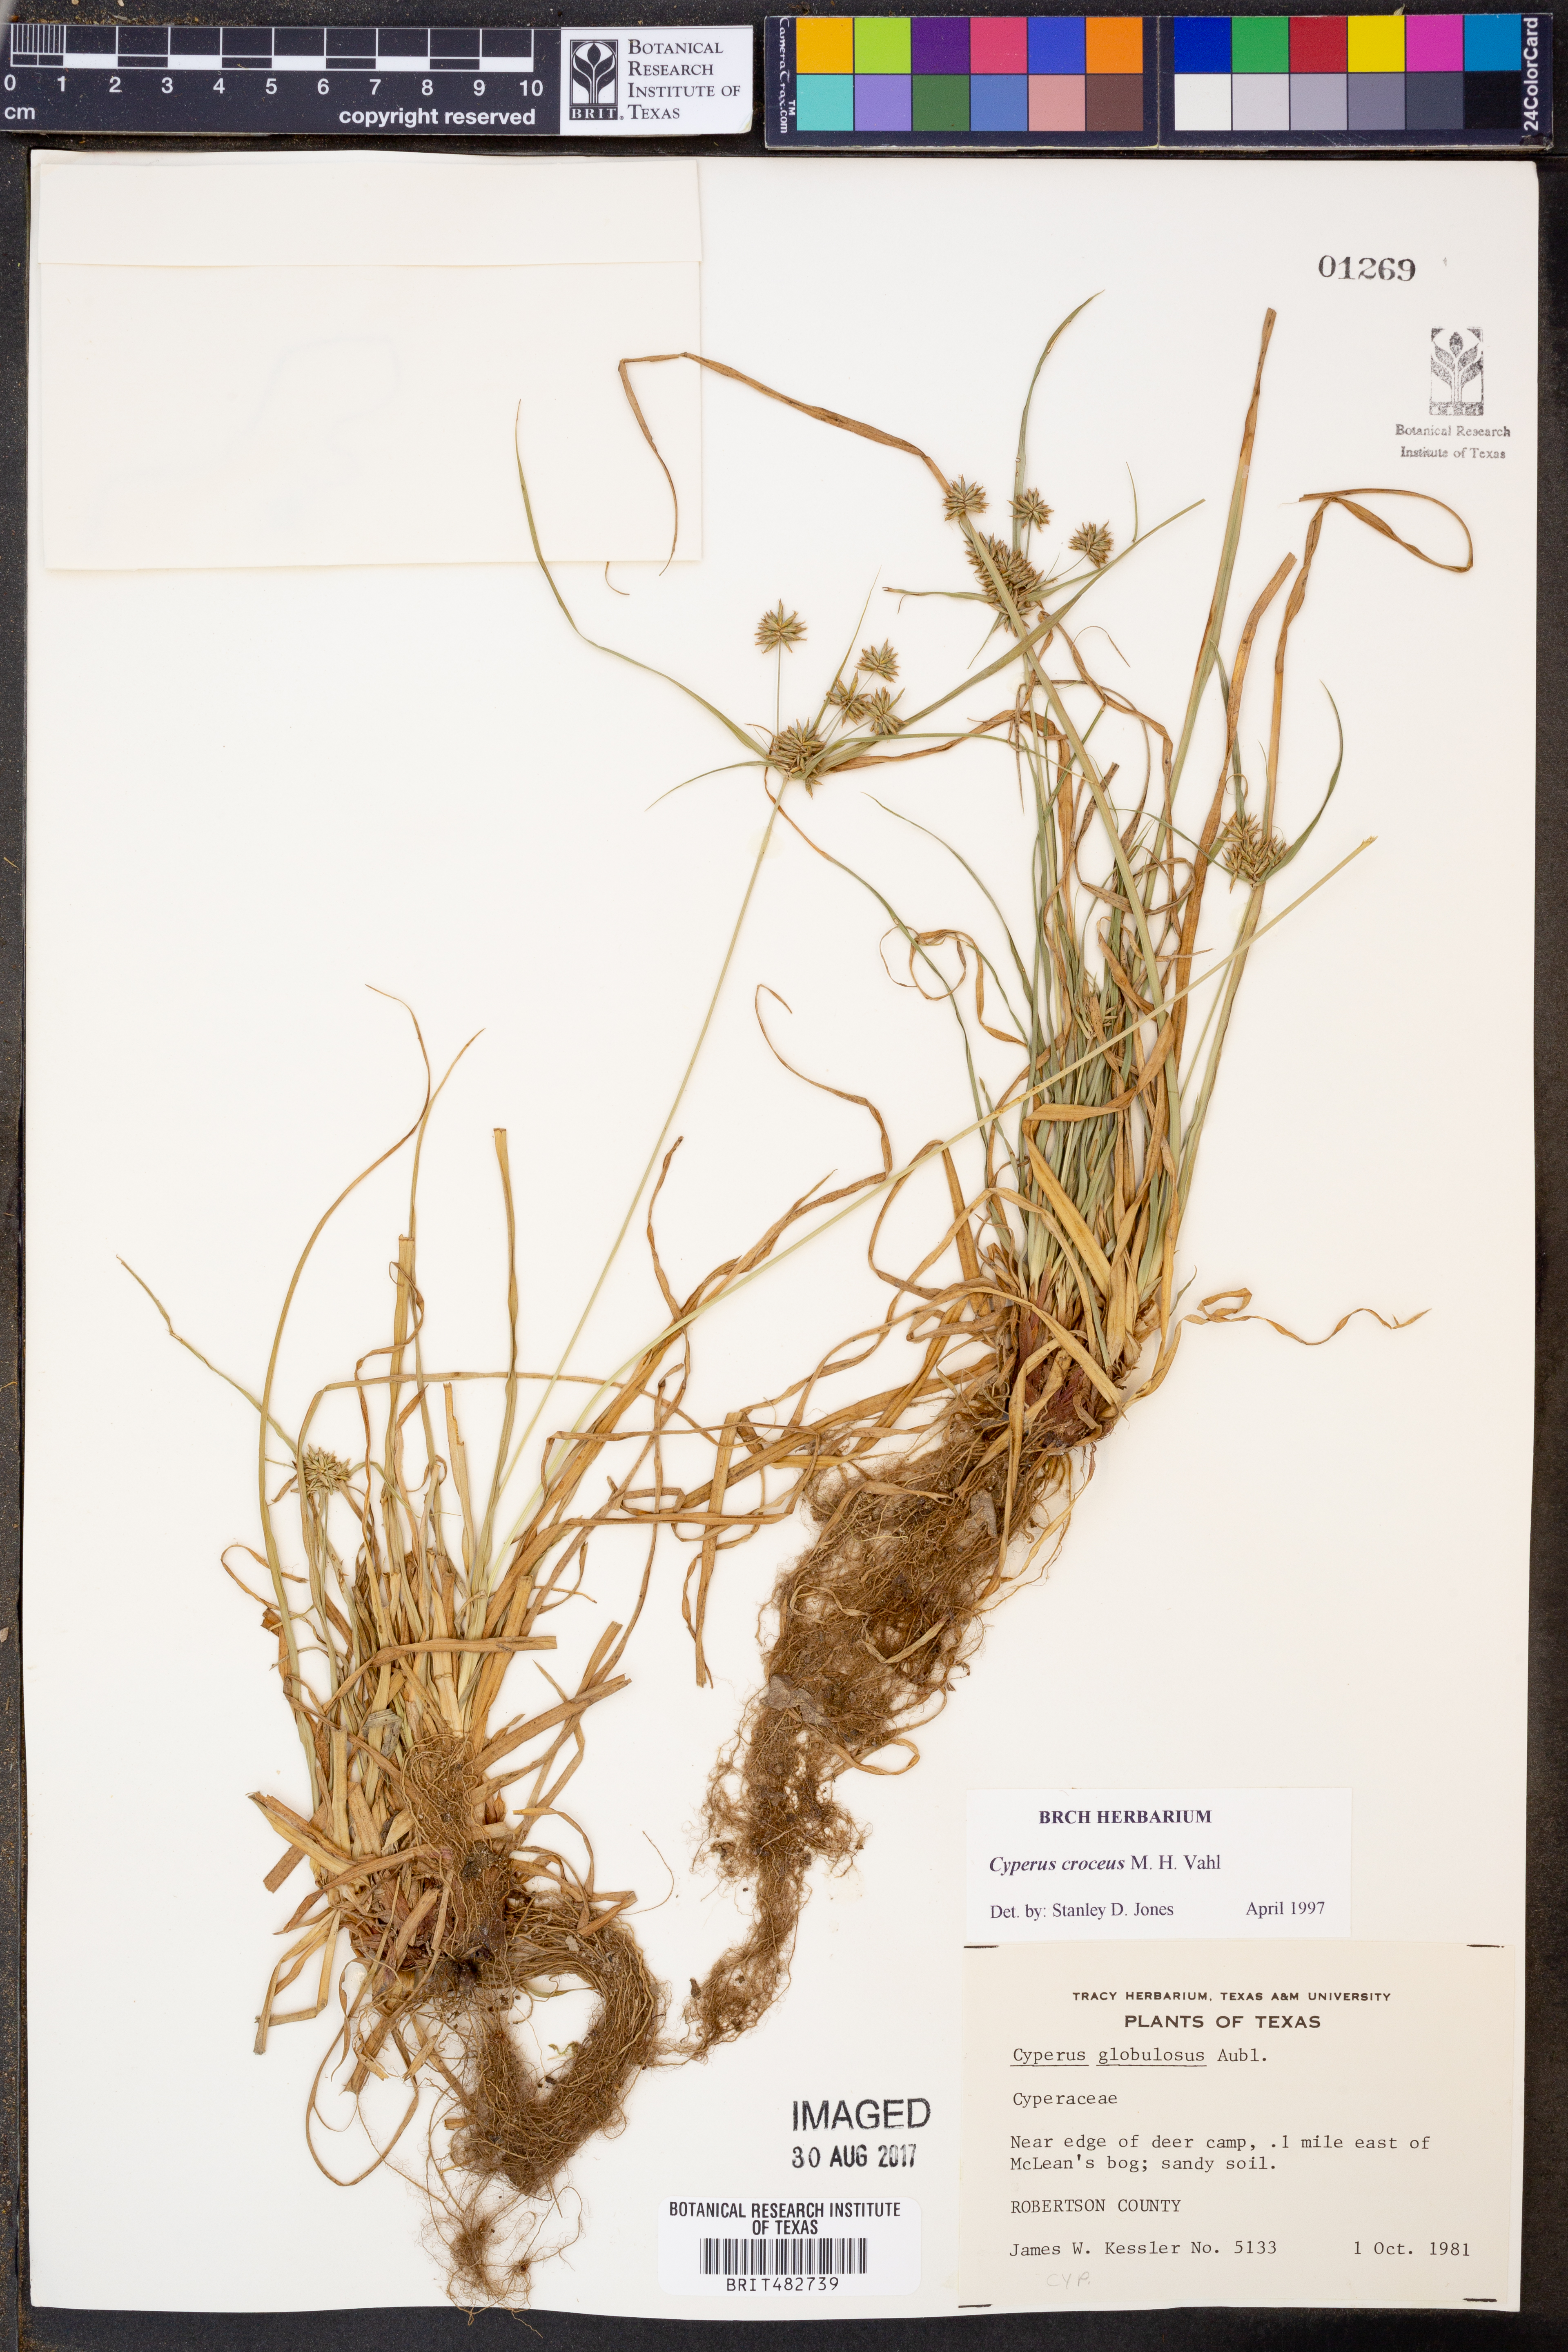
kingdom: Plantae
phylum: Tracheophyta
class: Liliopsida
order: Poales
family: Cyperaceae
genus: Cyperus
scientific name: Cyperus croceus
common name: Baldwin's flatsedge
